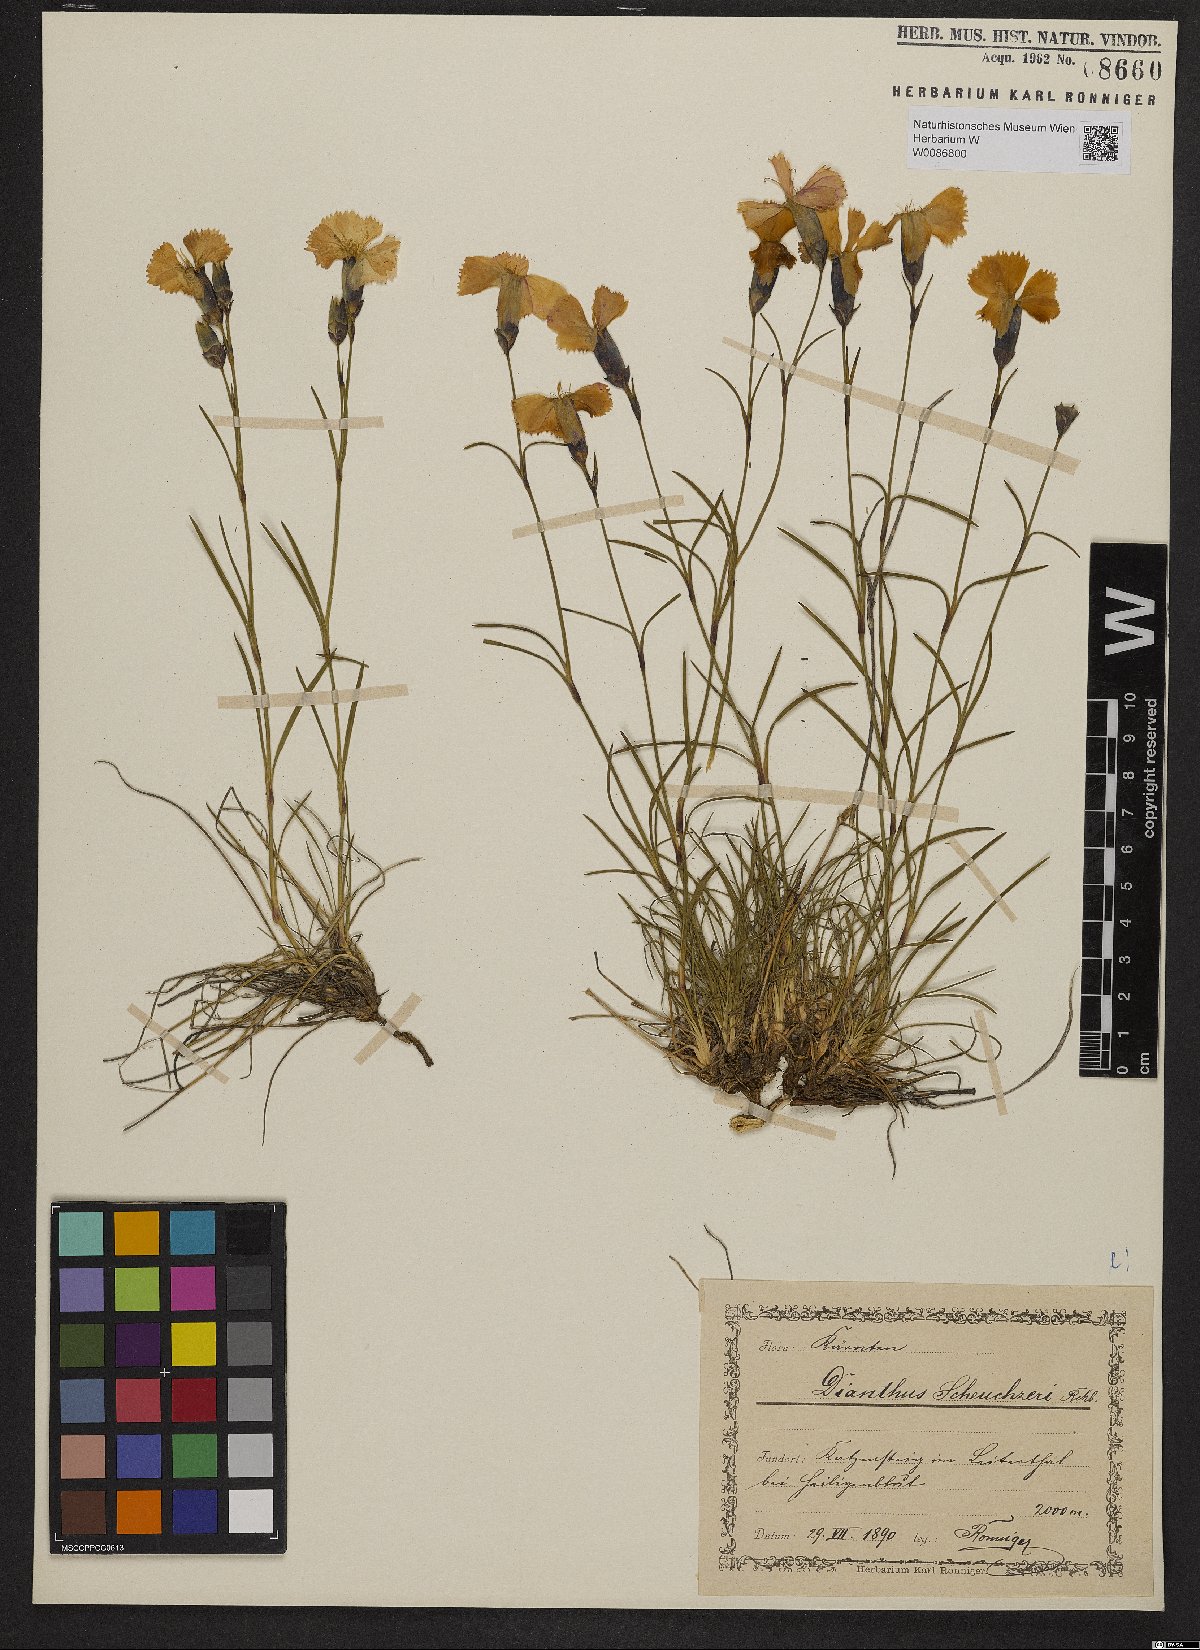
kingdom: Plantae
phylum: Tracheophyta
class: Magnoliopsida
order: Caryophyllales
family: Caryophyllaceae
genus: Dianthus
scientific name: Dianthus sylvestris
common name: Wood pink
